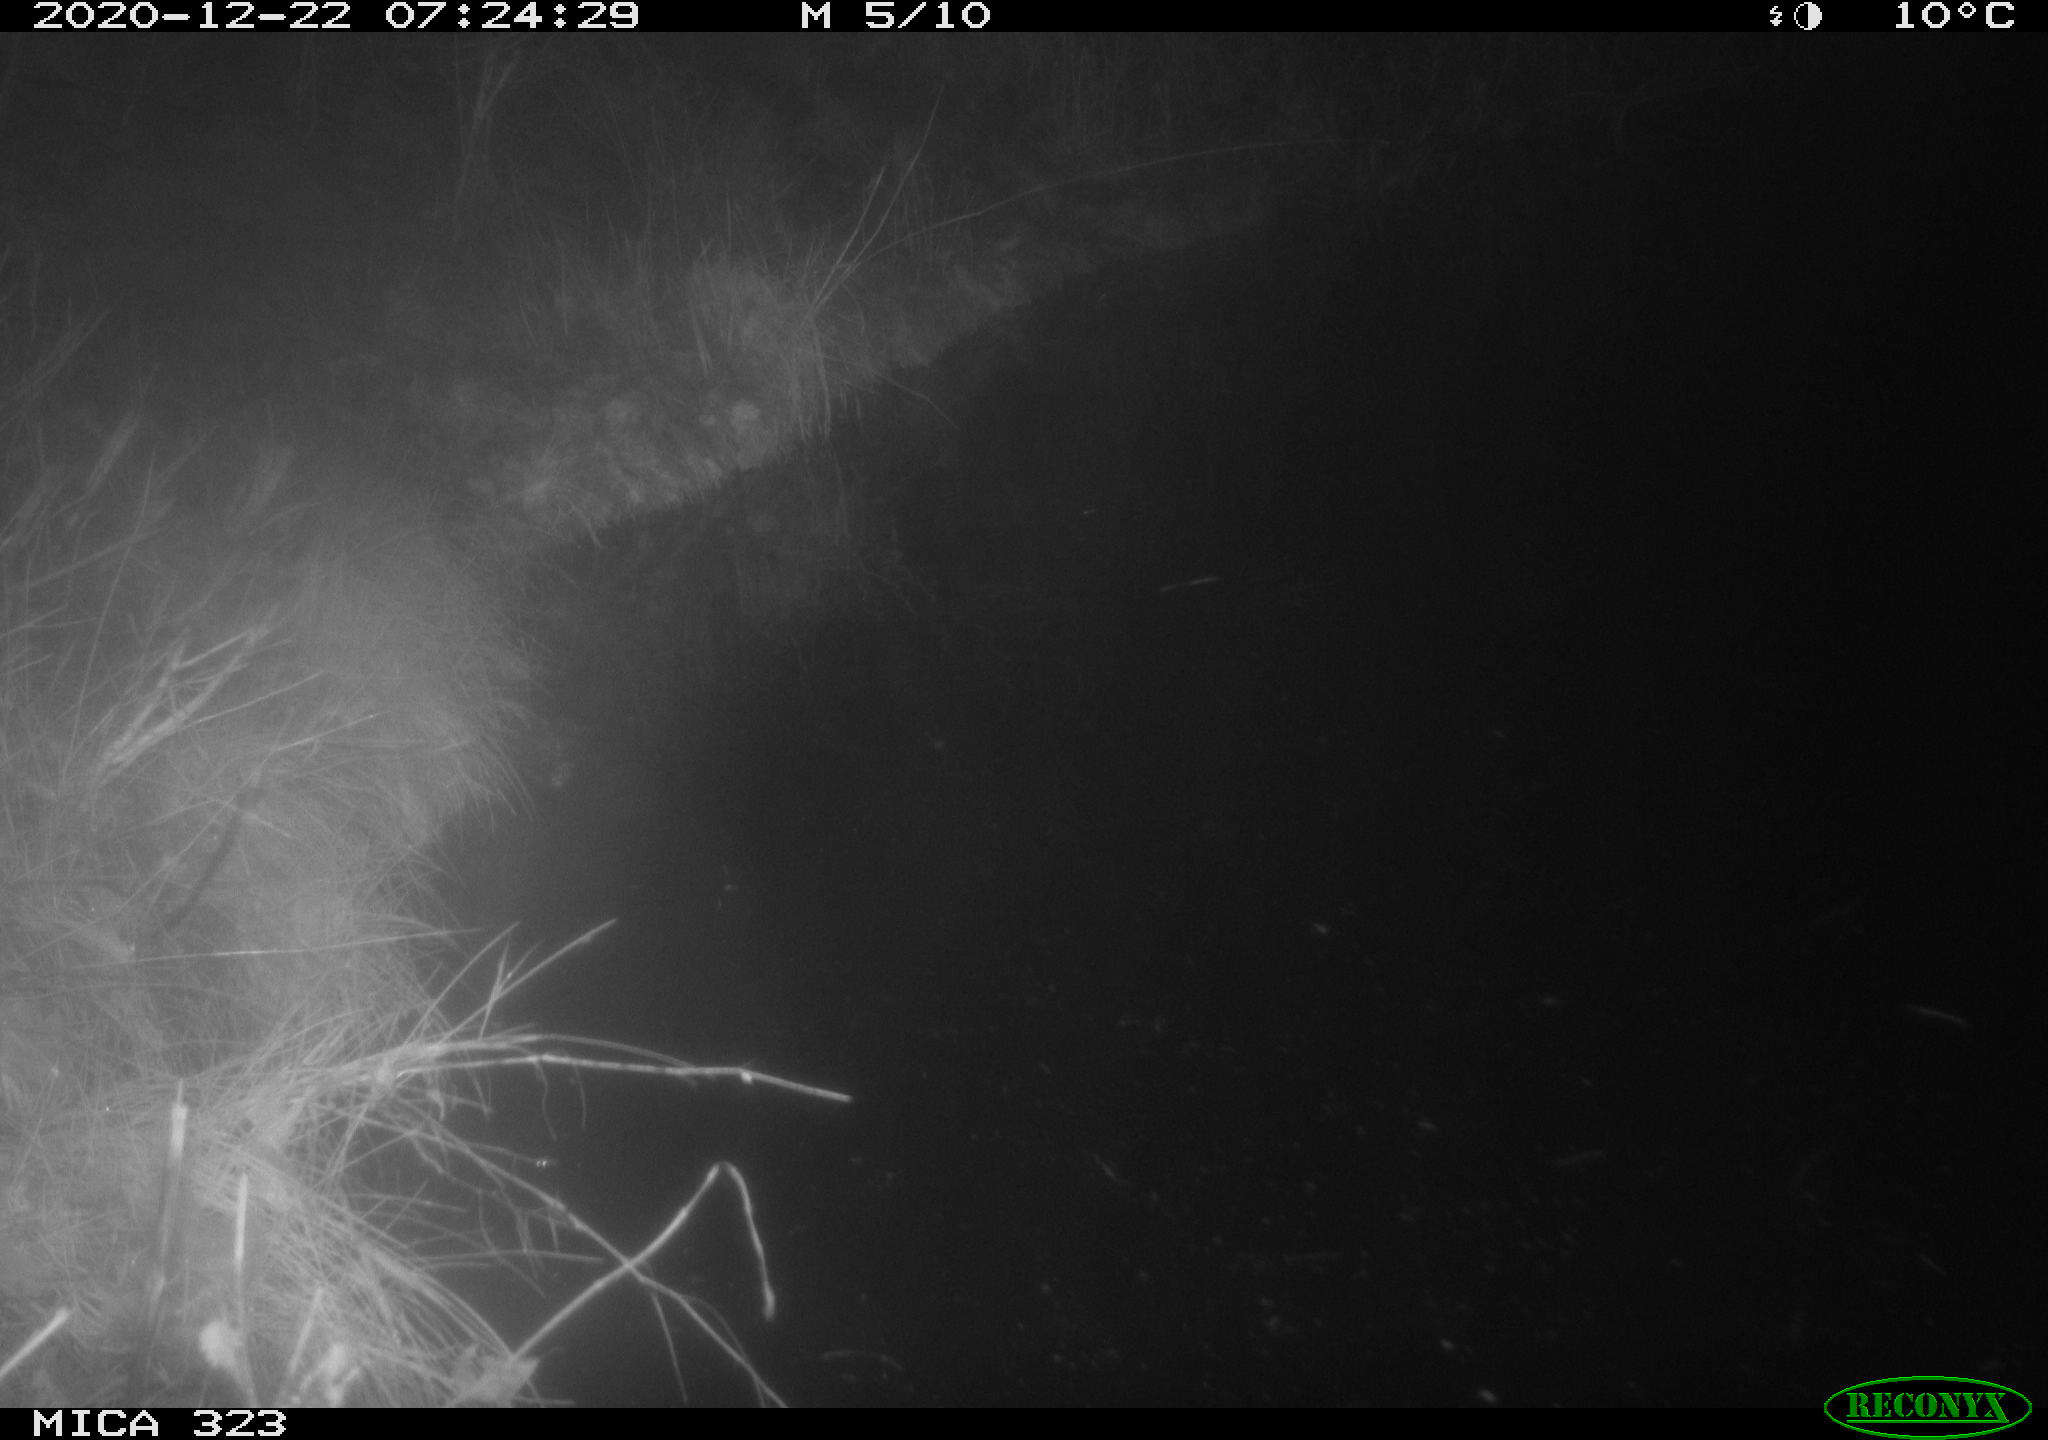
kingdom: Animalia
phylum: Chordata
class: Mammalia
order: Rodentia
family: Myocastoridae
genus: Myocastor
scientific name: Myocastor coypus
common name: Coypu
